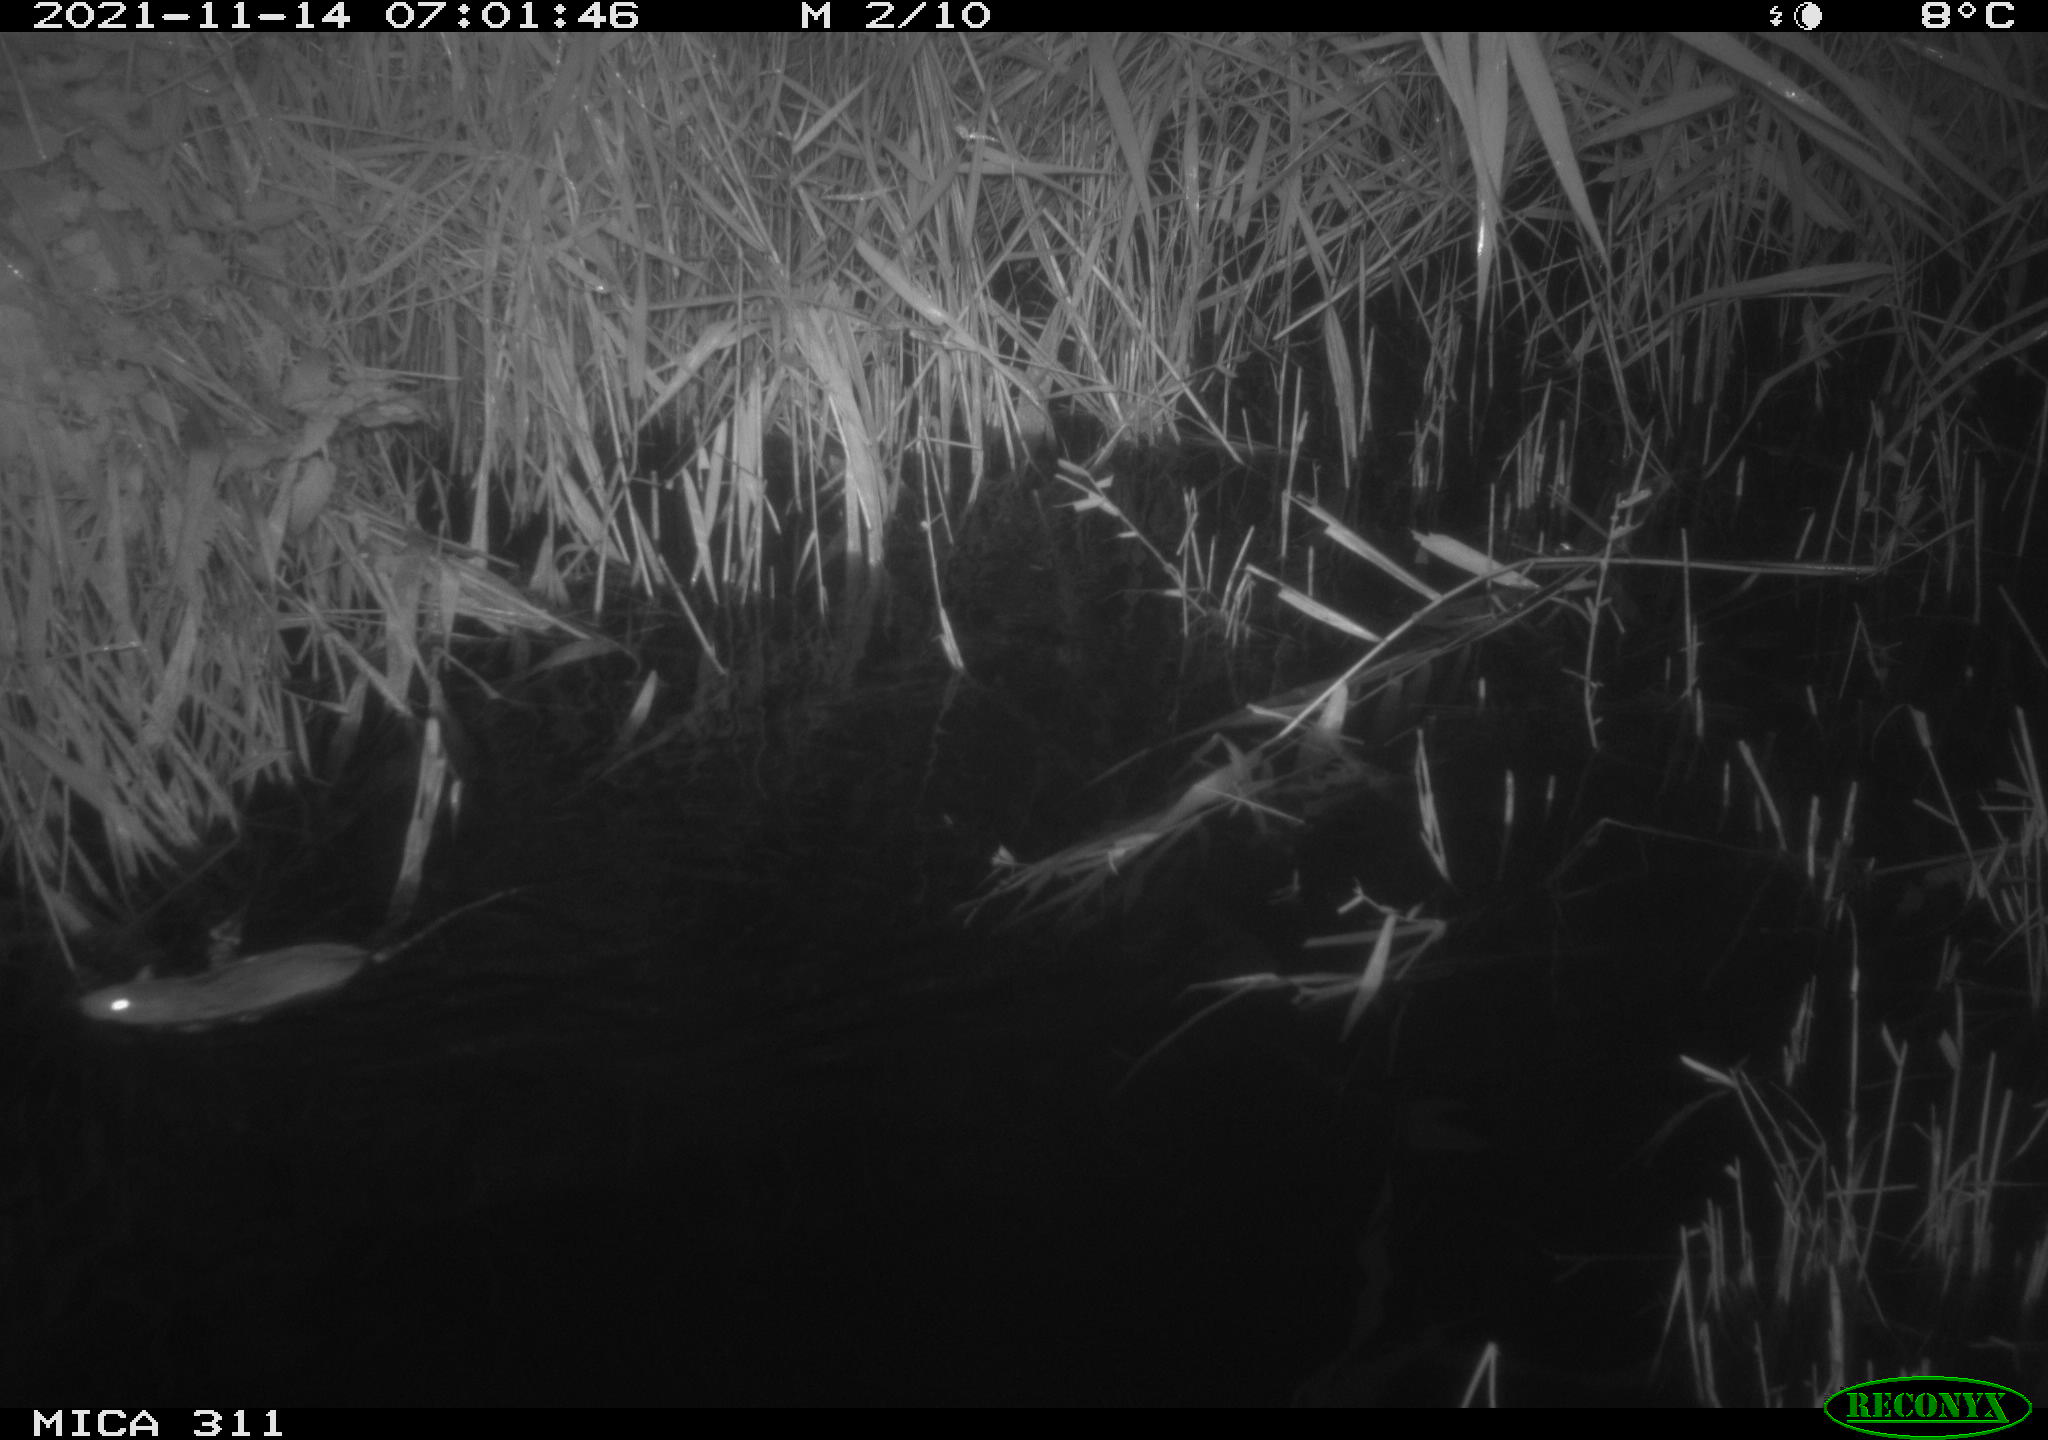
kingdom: Animalia
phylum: Chordata
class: Mammalia
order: Rodentia
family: Muridae
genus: Rattus
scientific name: Rattus norvegicus
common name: Brown rat
